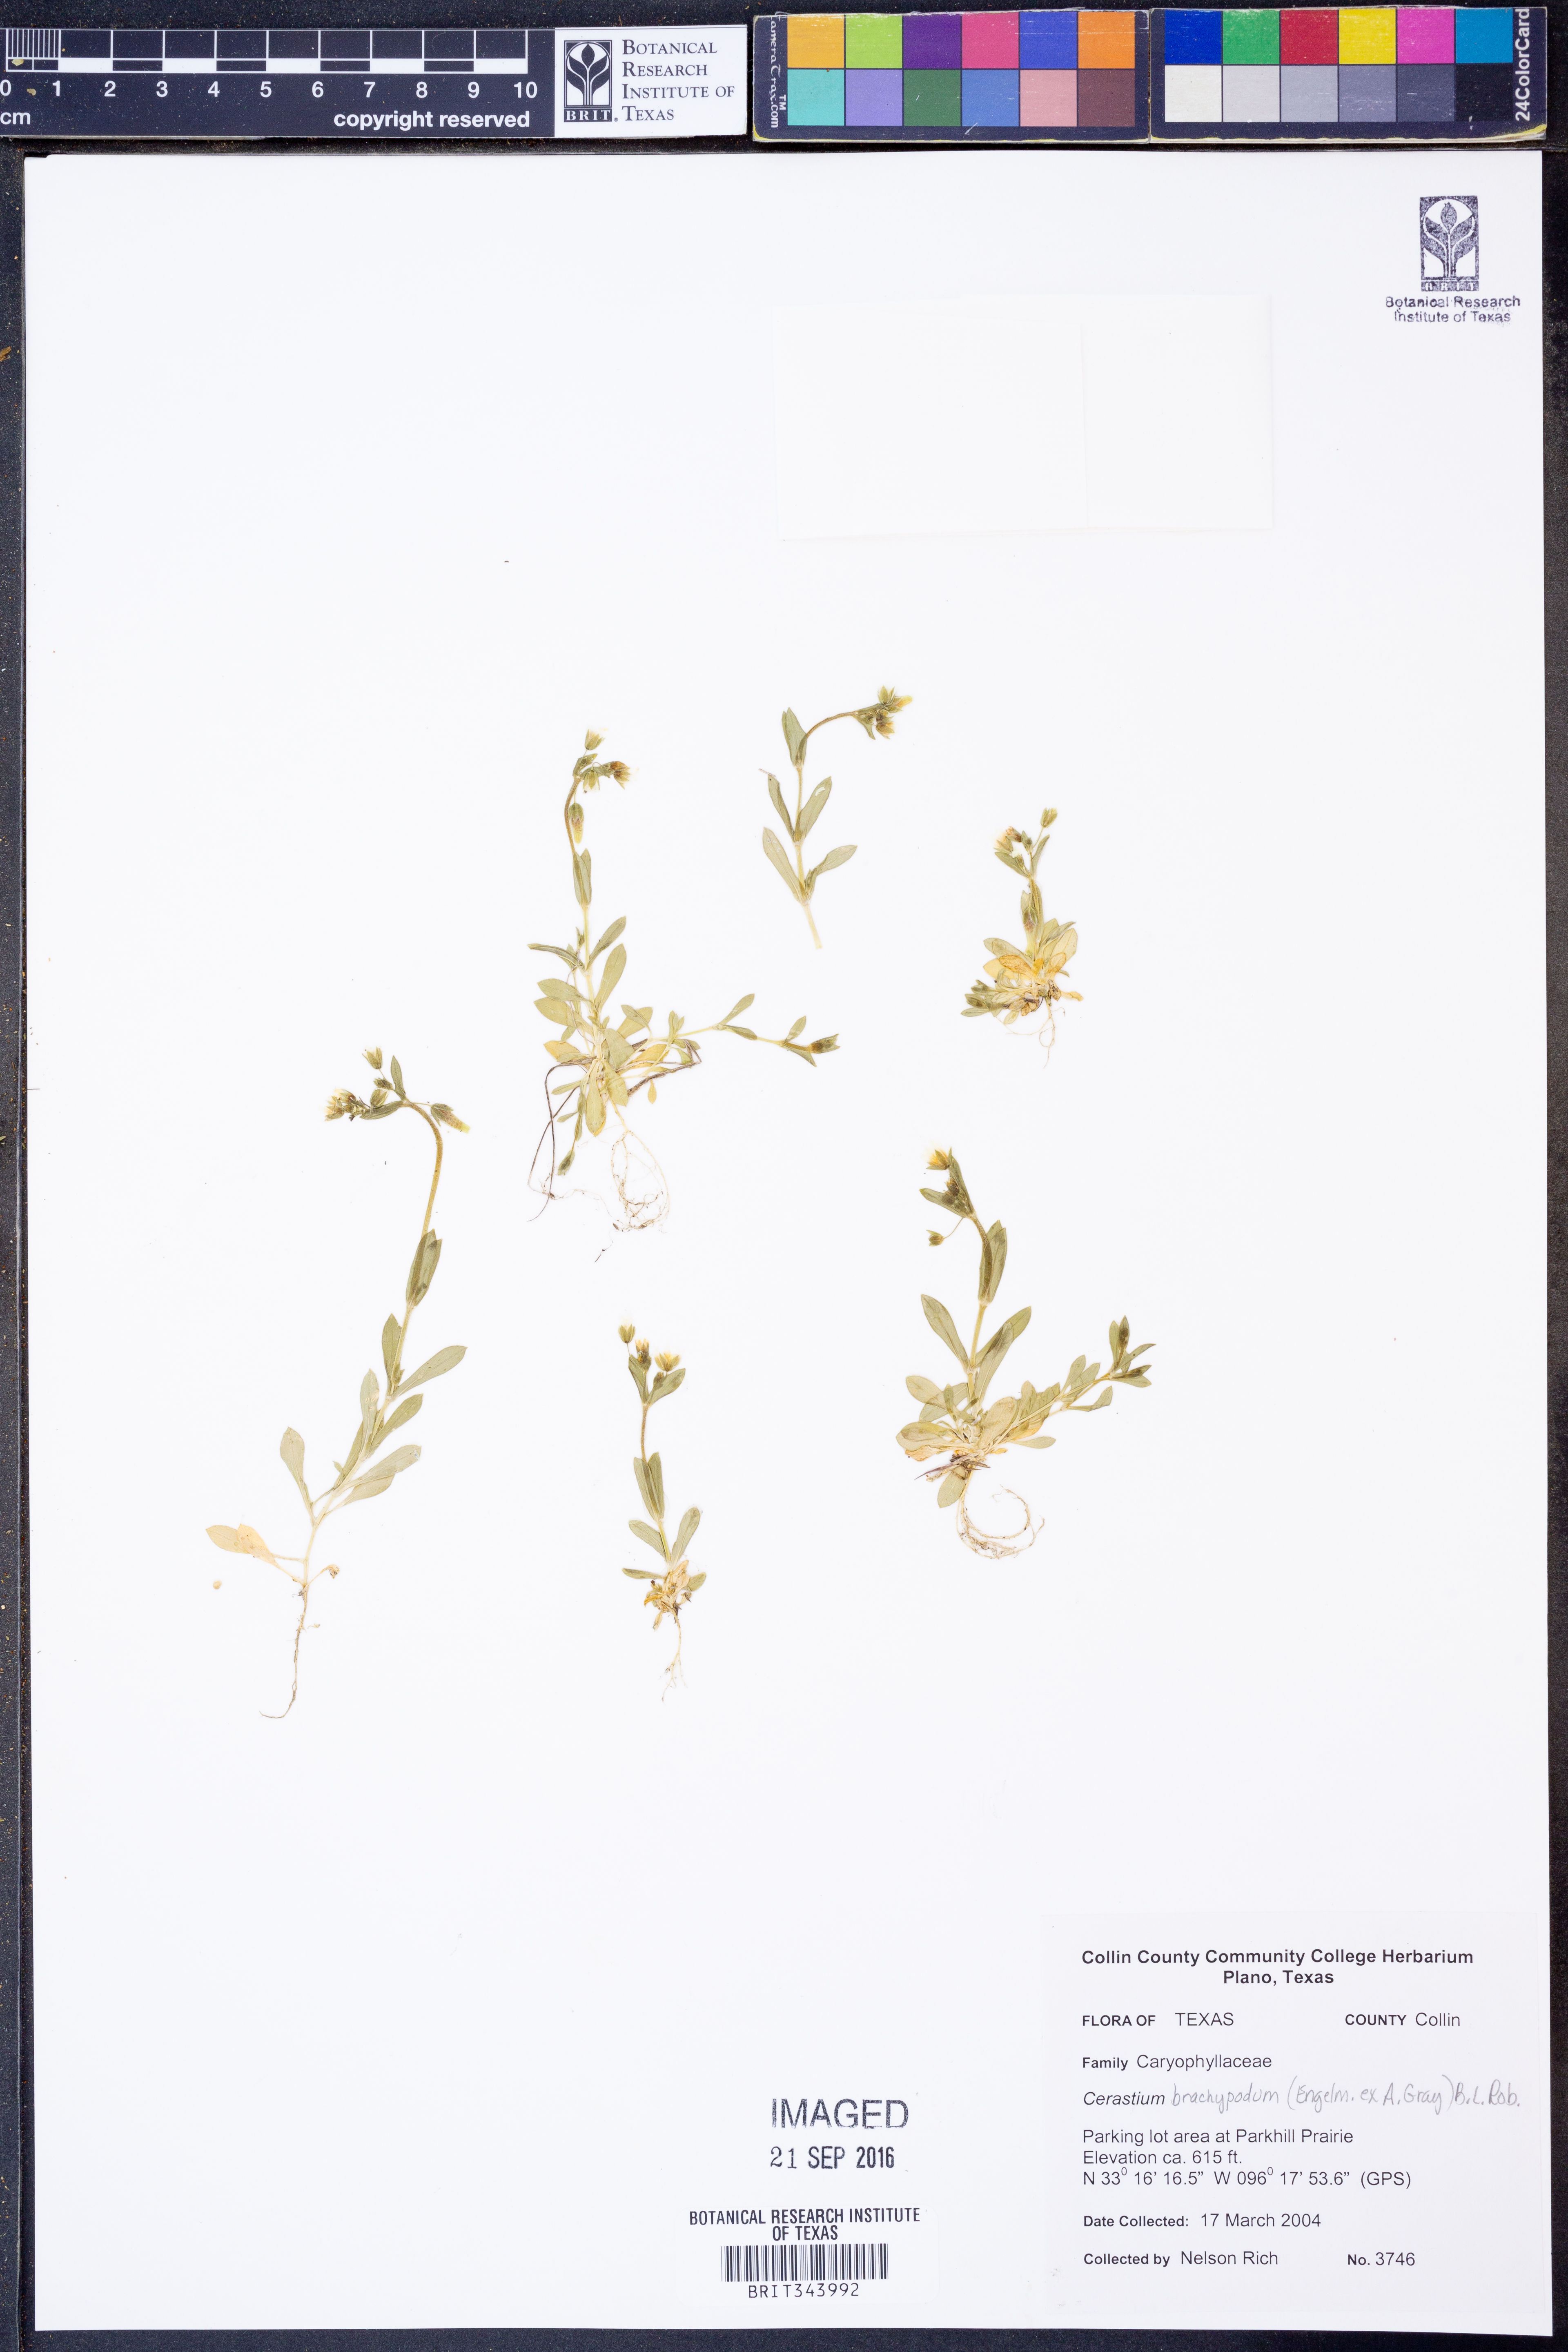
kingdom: Plantae
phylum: Tracheophyta
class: Magnoliopsida
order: Caryophyllales
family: Caryophyllaceae
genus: Cerastium
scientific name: Cerastium brachypodum
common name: Short-pedicelled nodding chickweed
